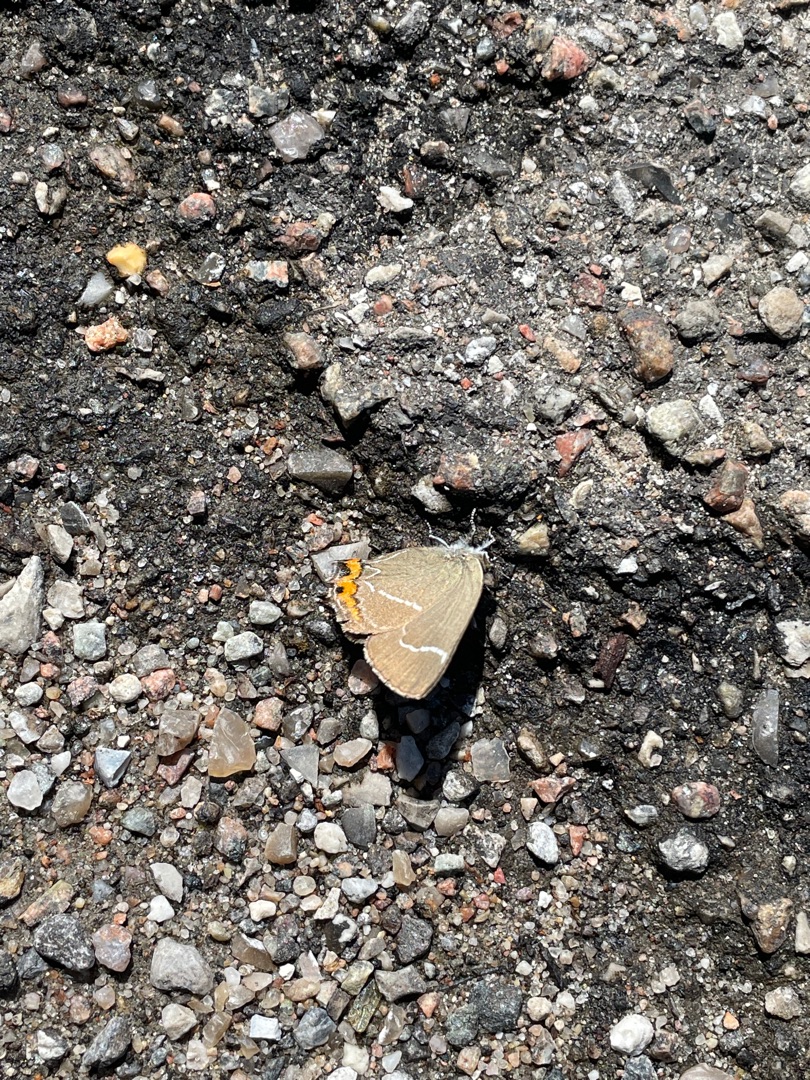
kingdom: Animalia
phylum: Arthropoda
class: Insecta
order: Lepidoptera
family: Lycaenidae
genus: Satyrium
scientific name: Satyrium w-album
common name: Det hvide W
